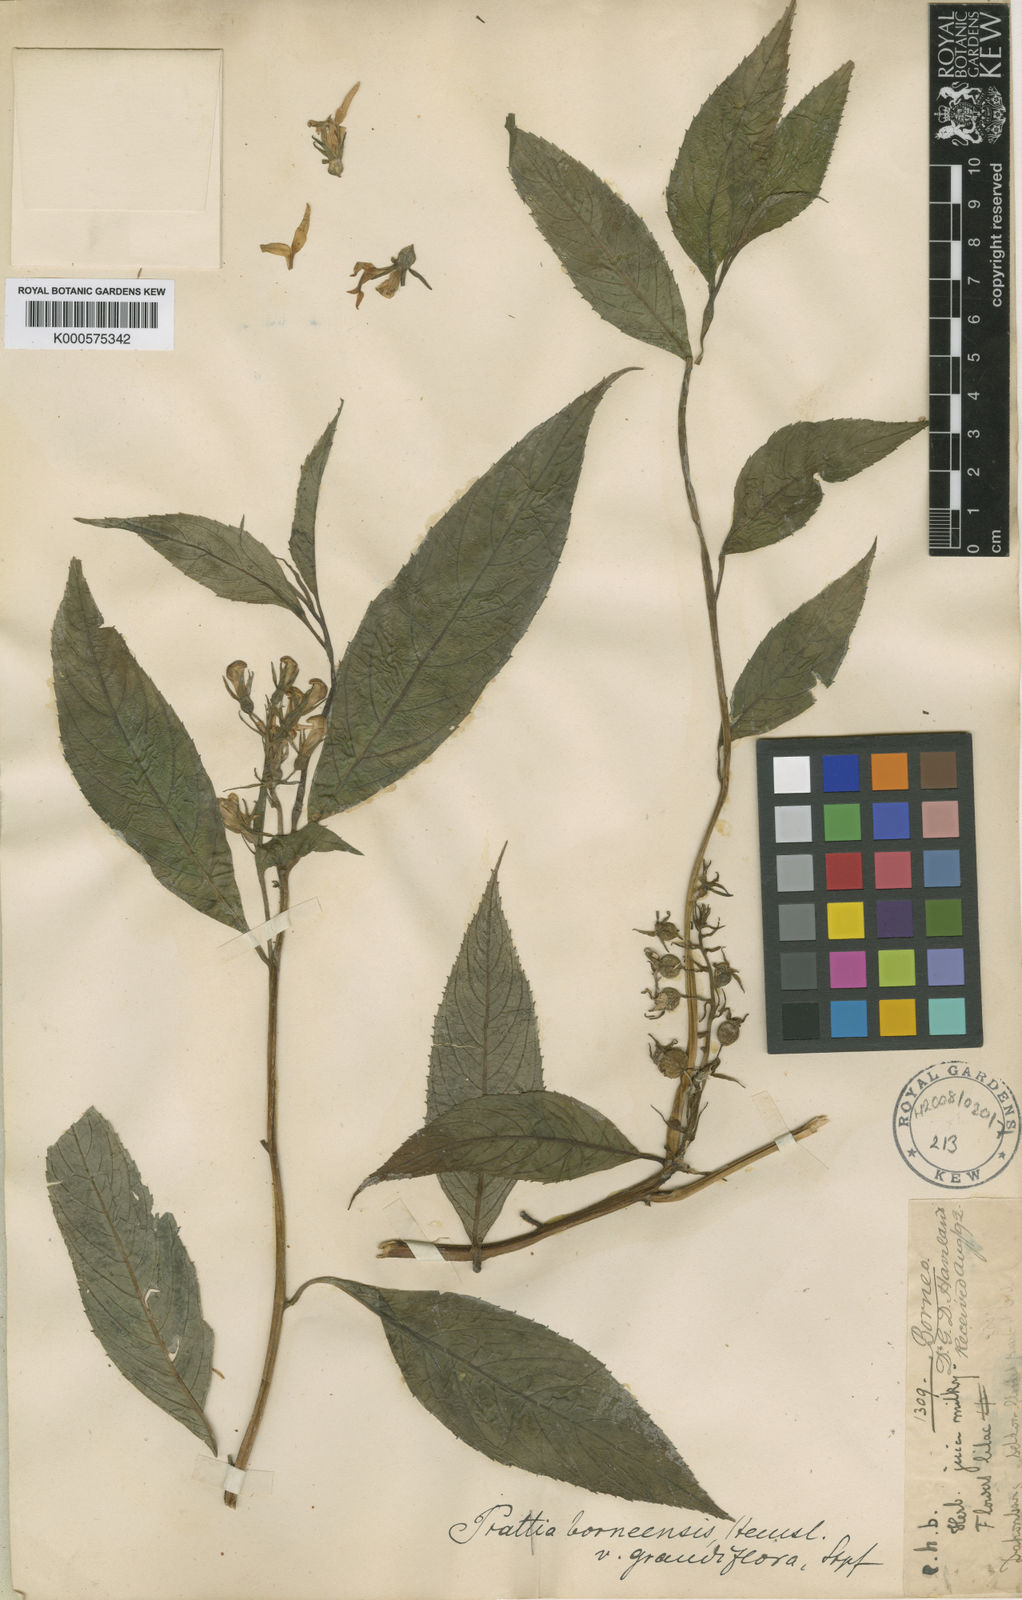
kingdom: Plantae
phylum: Tracheophyta
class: Magnoliopsida
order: Asterales
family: Campanulaceae
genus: Lobelia
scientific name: Lobelia borneensis
